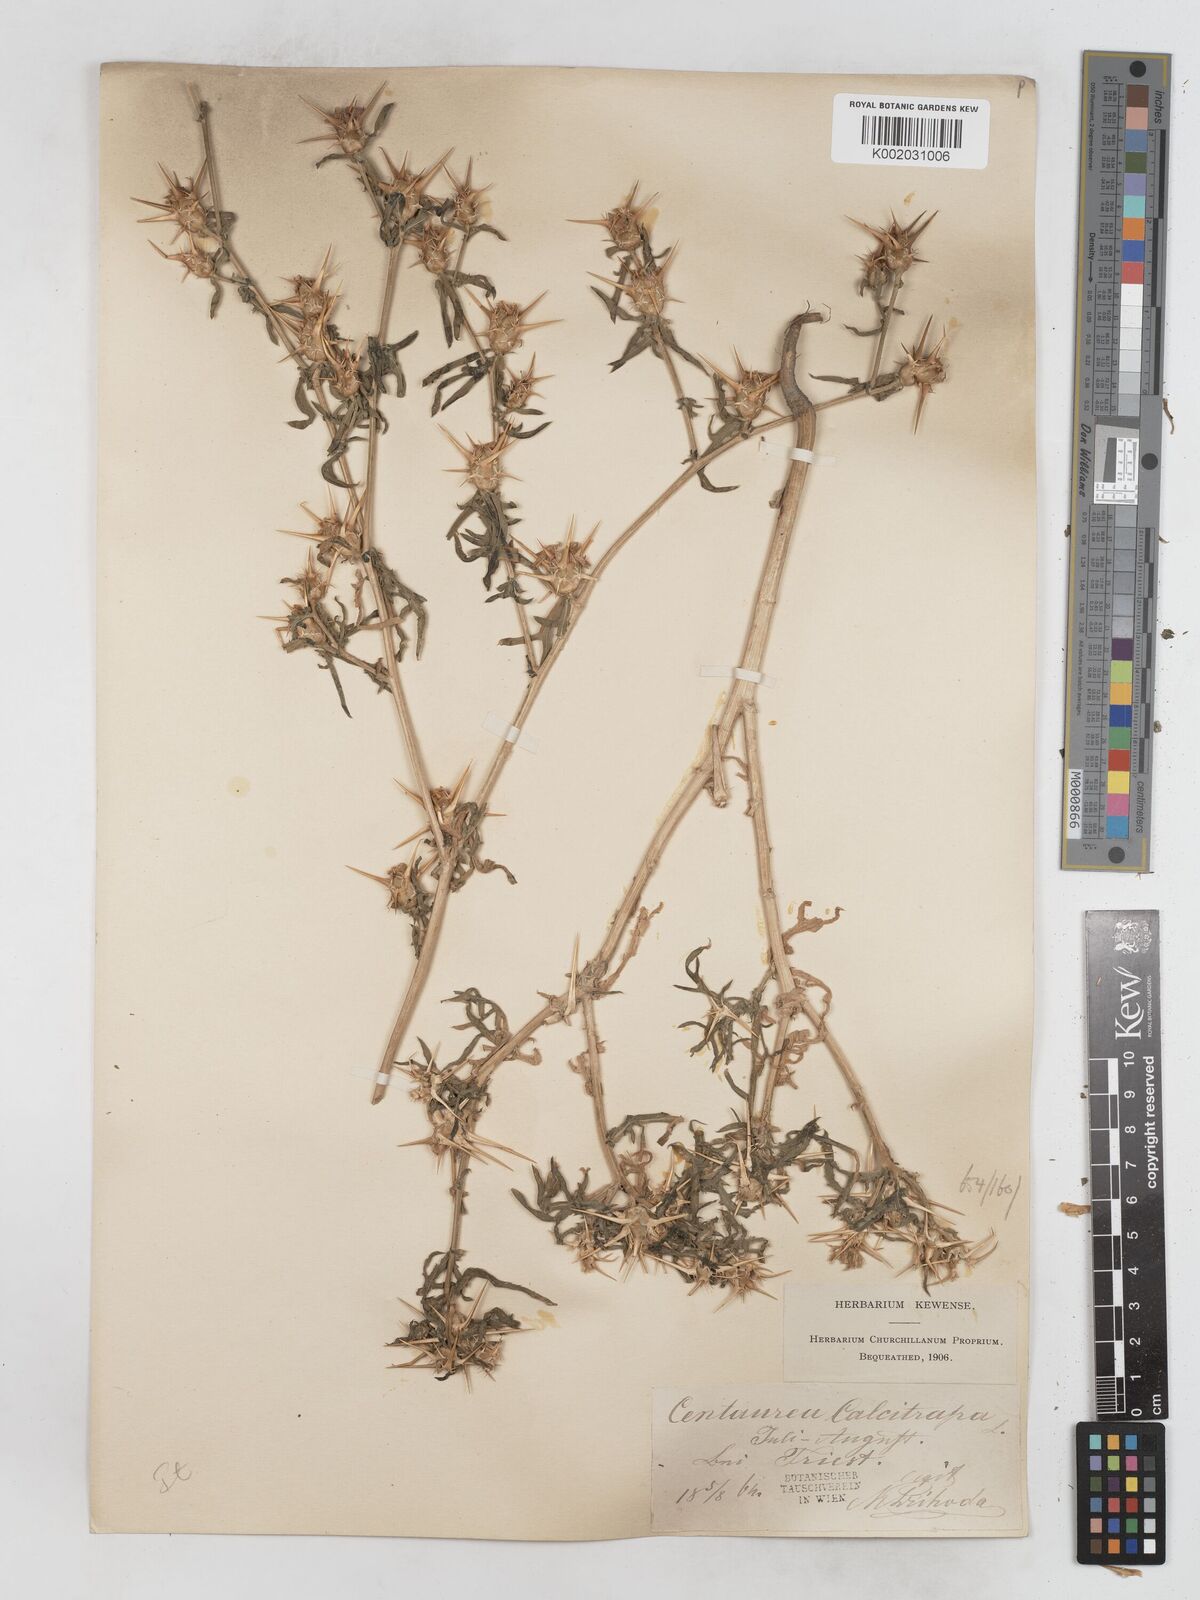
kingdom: Plantae
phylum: Tracheophyta
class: Magnoliopsida
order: Asterales
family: Asteraceae
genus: Centaurea
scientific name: Centaurea calcitrapa
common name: Red star-thistle
